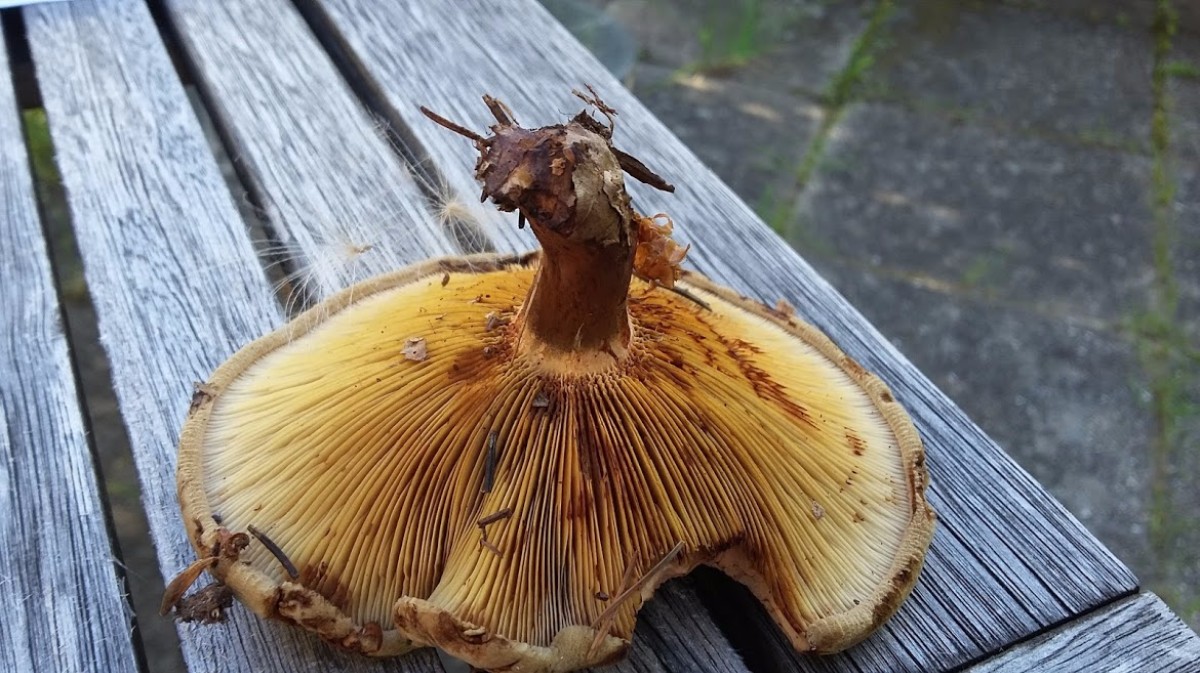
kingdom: Fungi
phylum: Basidiomycota
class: Agaricomycetes
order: Boletales
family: Paxillaceae
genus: Paxillus
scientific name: Paxillus involutus
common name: almindelig netbladhat
